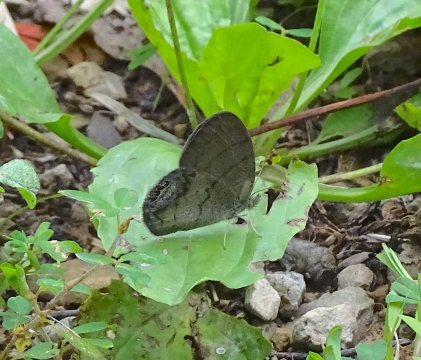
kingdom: Animalia
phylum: Arthropoda
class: Insecta
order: Lepidoptera
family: Nymphalidae
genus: Euptychia
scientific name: Euptychia cornelius
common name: Gemmed Satyr
